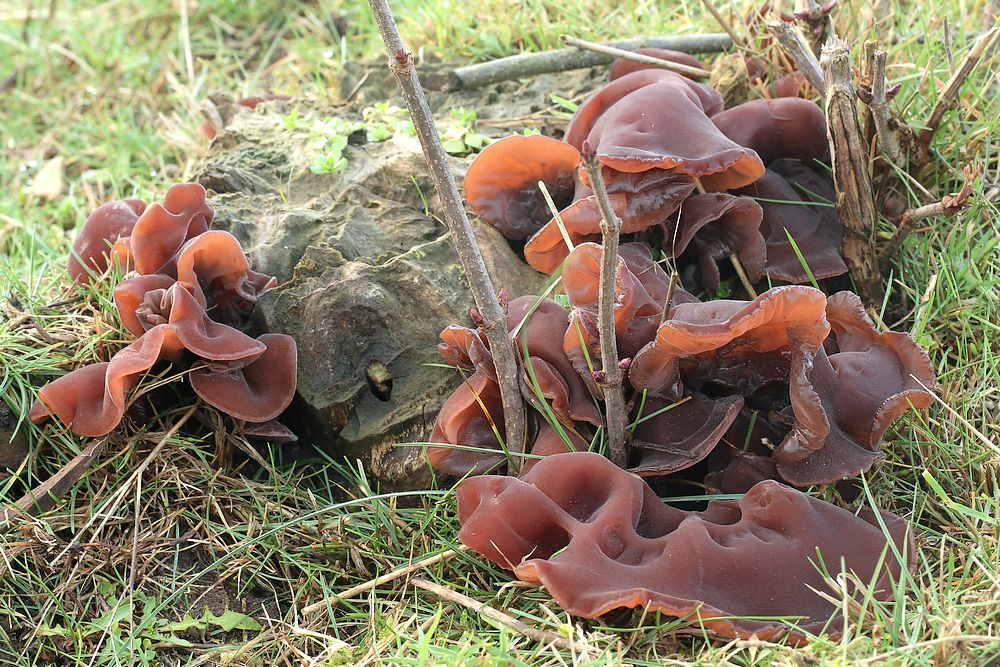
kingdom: Fungi
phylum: Basidiomycota
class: Agaricomycetes
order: Auriculariales
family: Auriculariaceae
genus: Auricularia
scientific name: Auricularia auricula-judae
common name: almindelig judasøre
